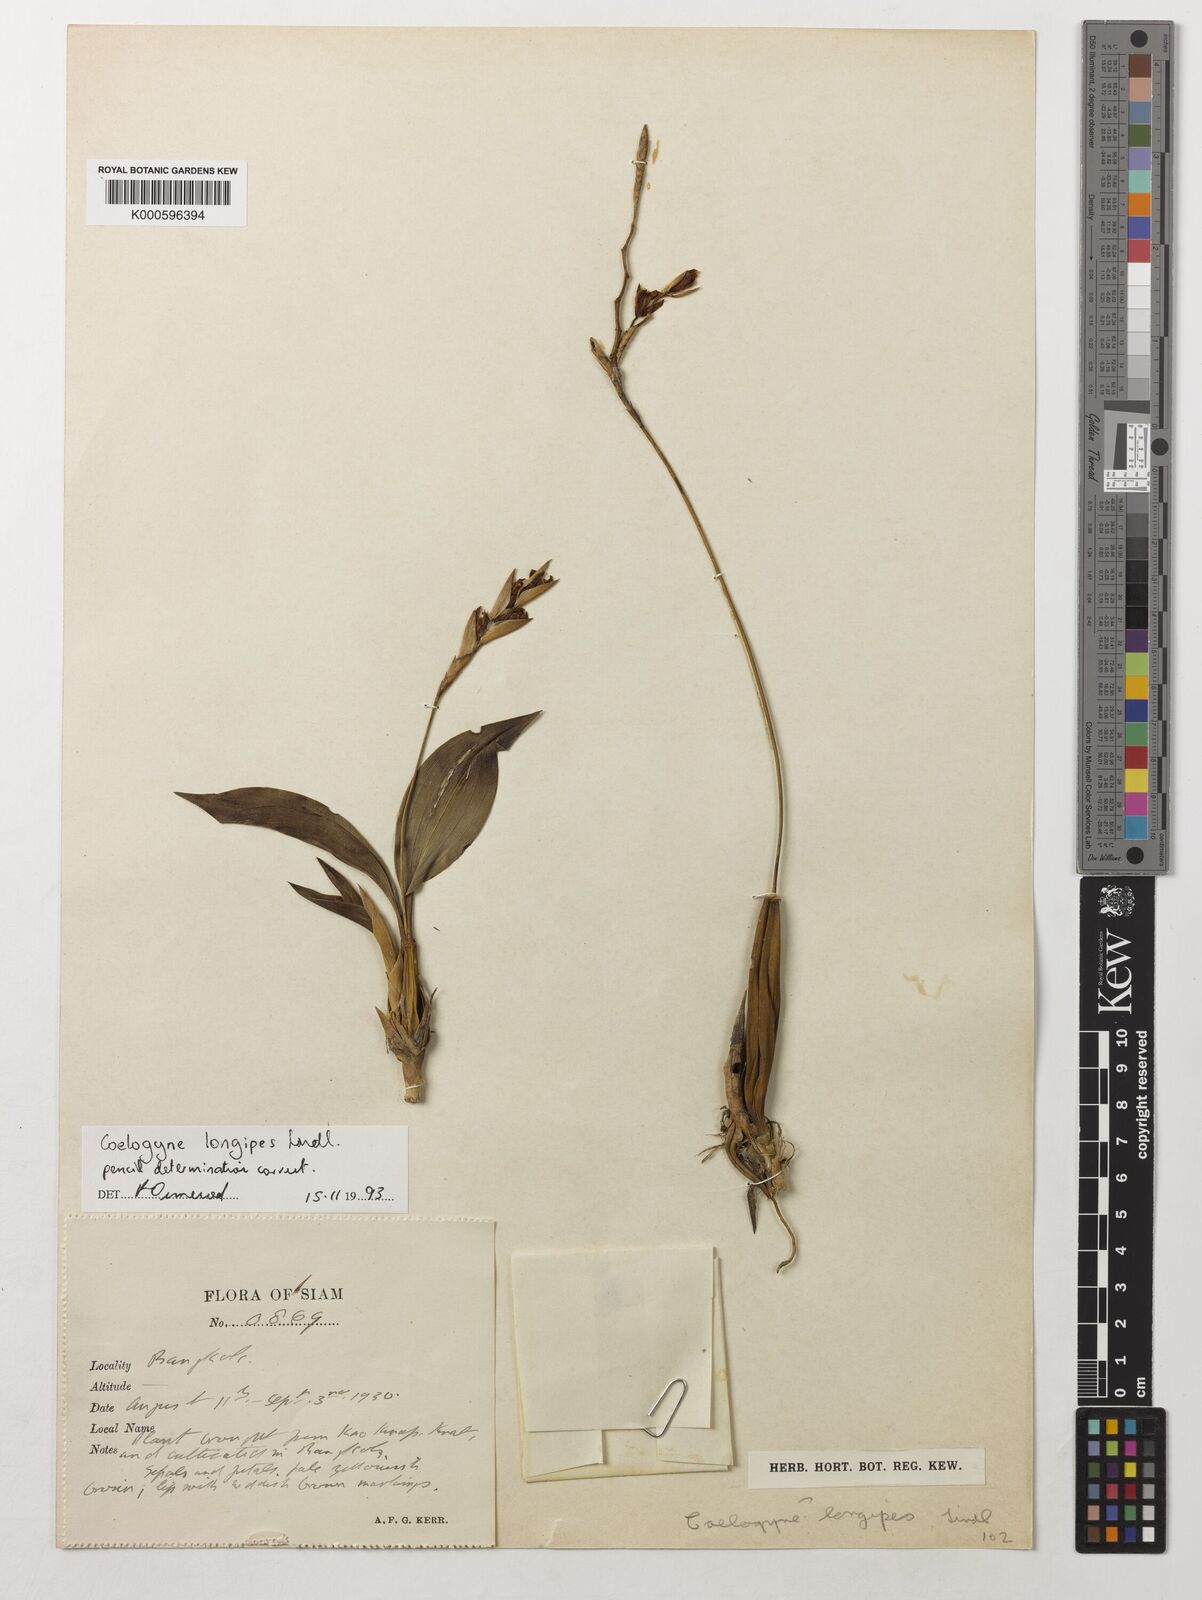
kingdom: Plantae
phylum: Tracheophyta
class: Liliopsida
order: Asparagales
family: Orchidaceae
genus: Coelogyne
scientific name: Coelogyne longipes
